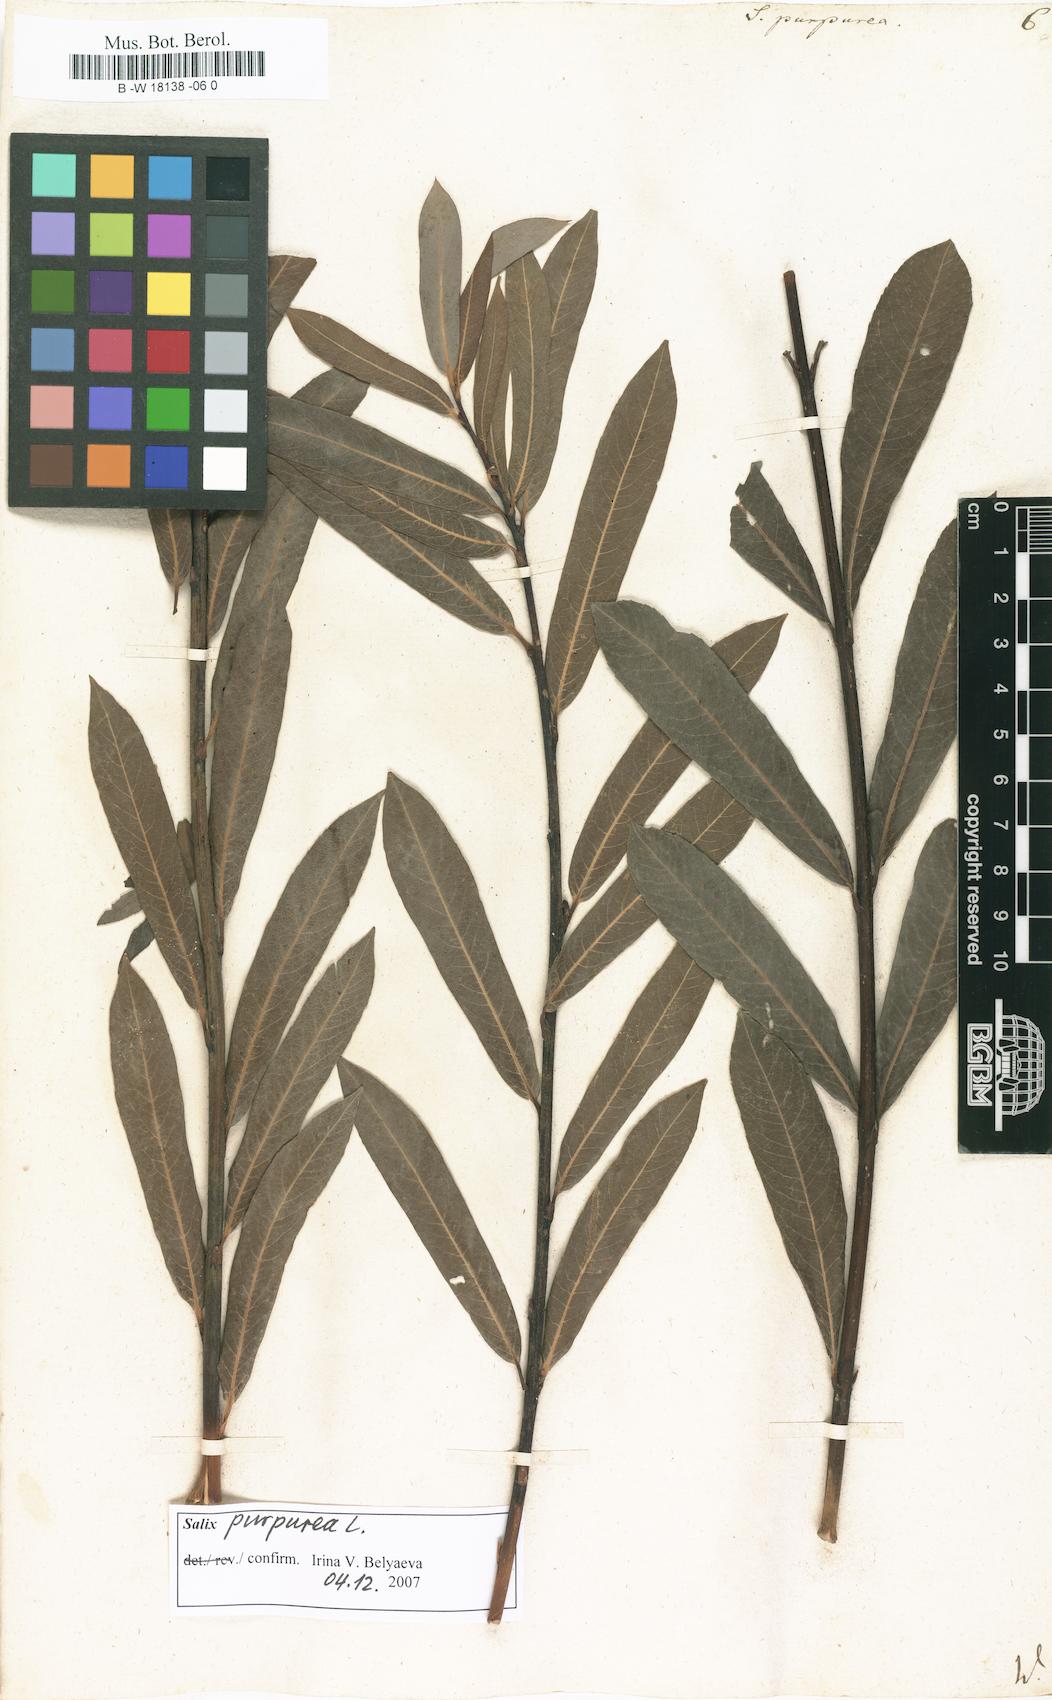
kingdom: Plantae
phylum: Tracheophyta
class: Magnoliopsida
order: Malpighiales
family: Salicaceae
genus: Salix
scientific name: Salix purpurea
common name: Purple willow
